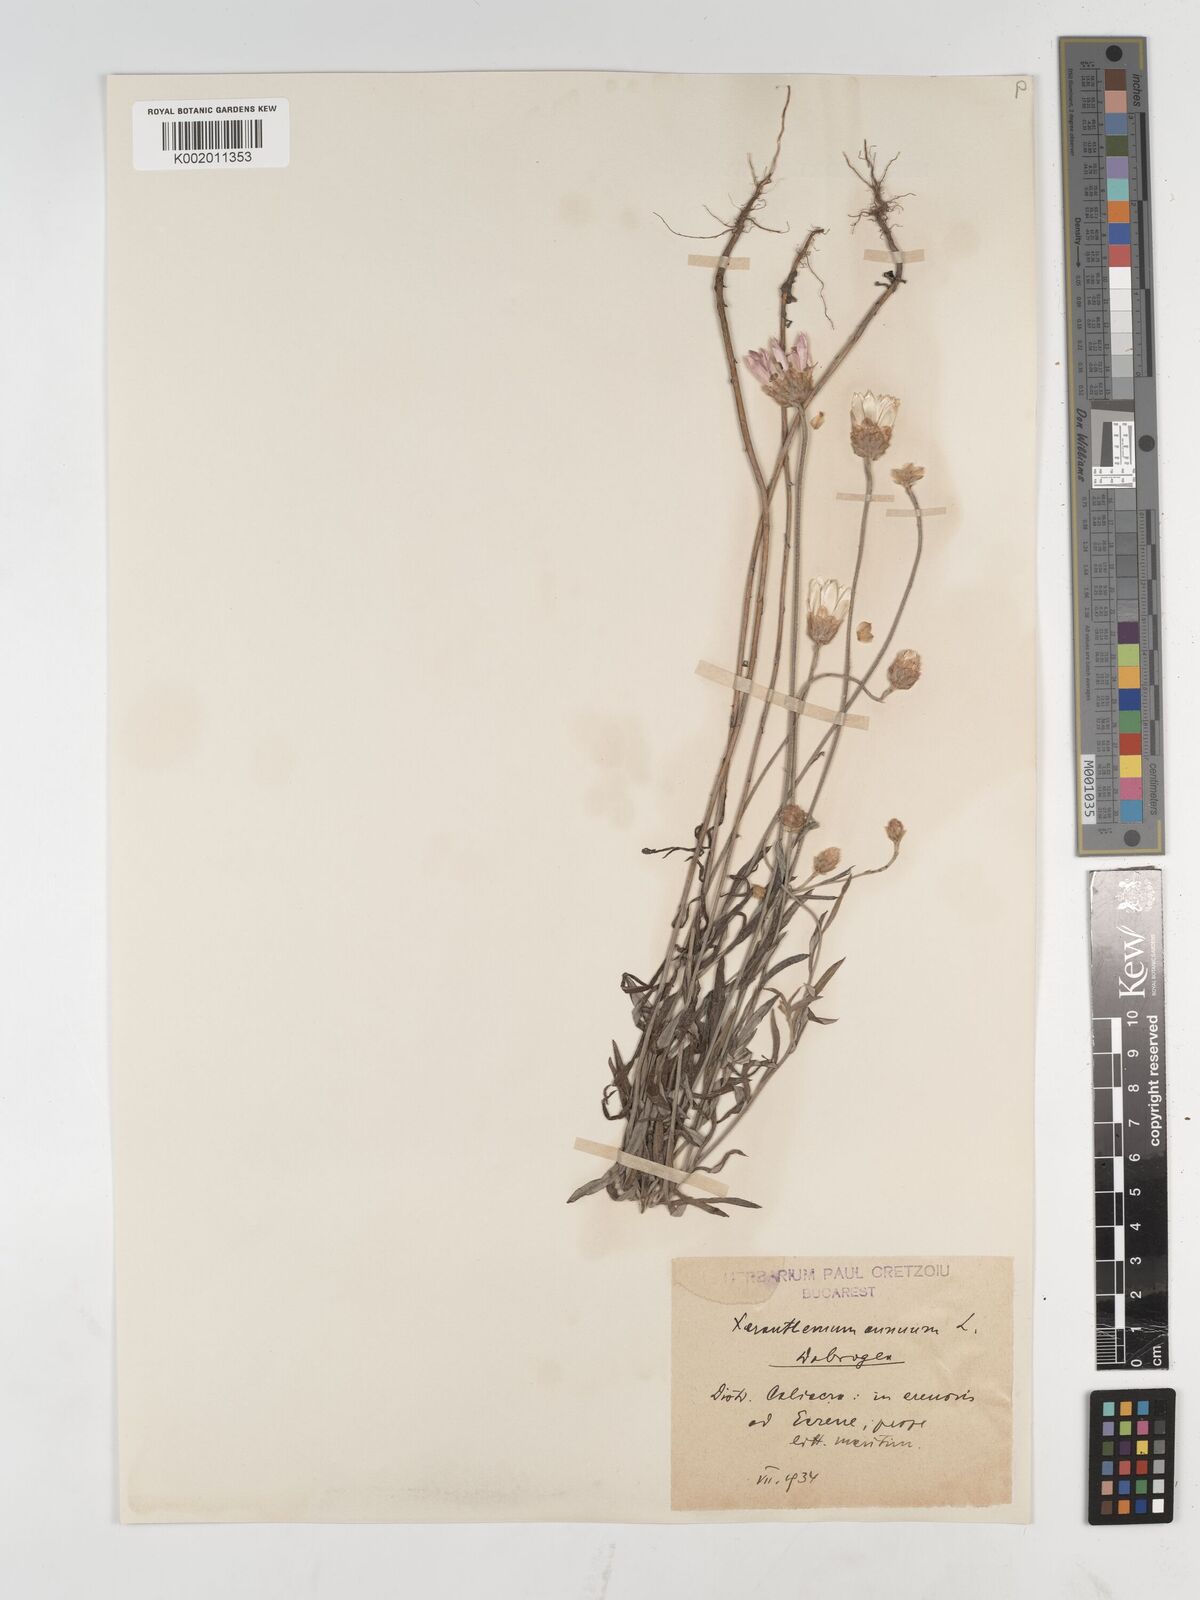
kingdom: Plantae
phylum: Tracheophyta
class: Magnoliopsida
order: Asterales
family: Asteraceae
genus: Xeranthemum
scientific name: Xeranthemum annuum
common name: Immortelle
